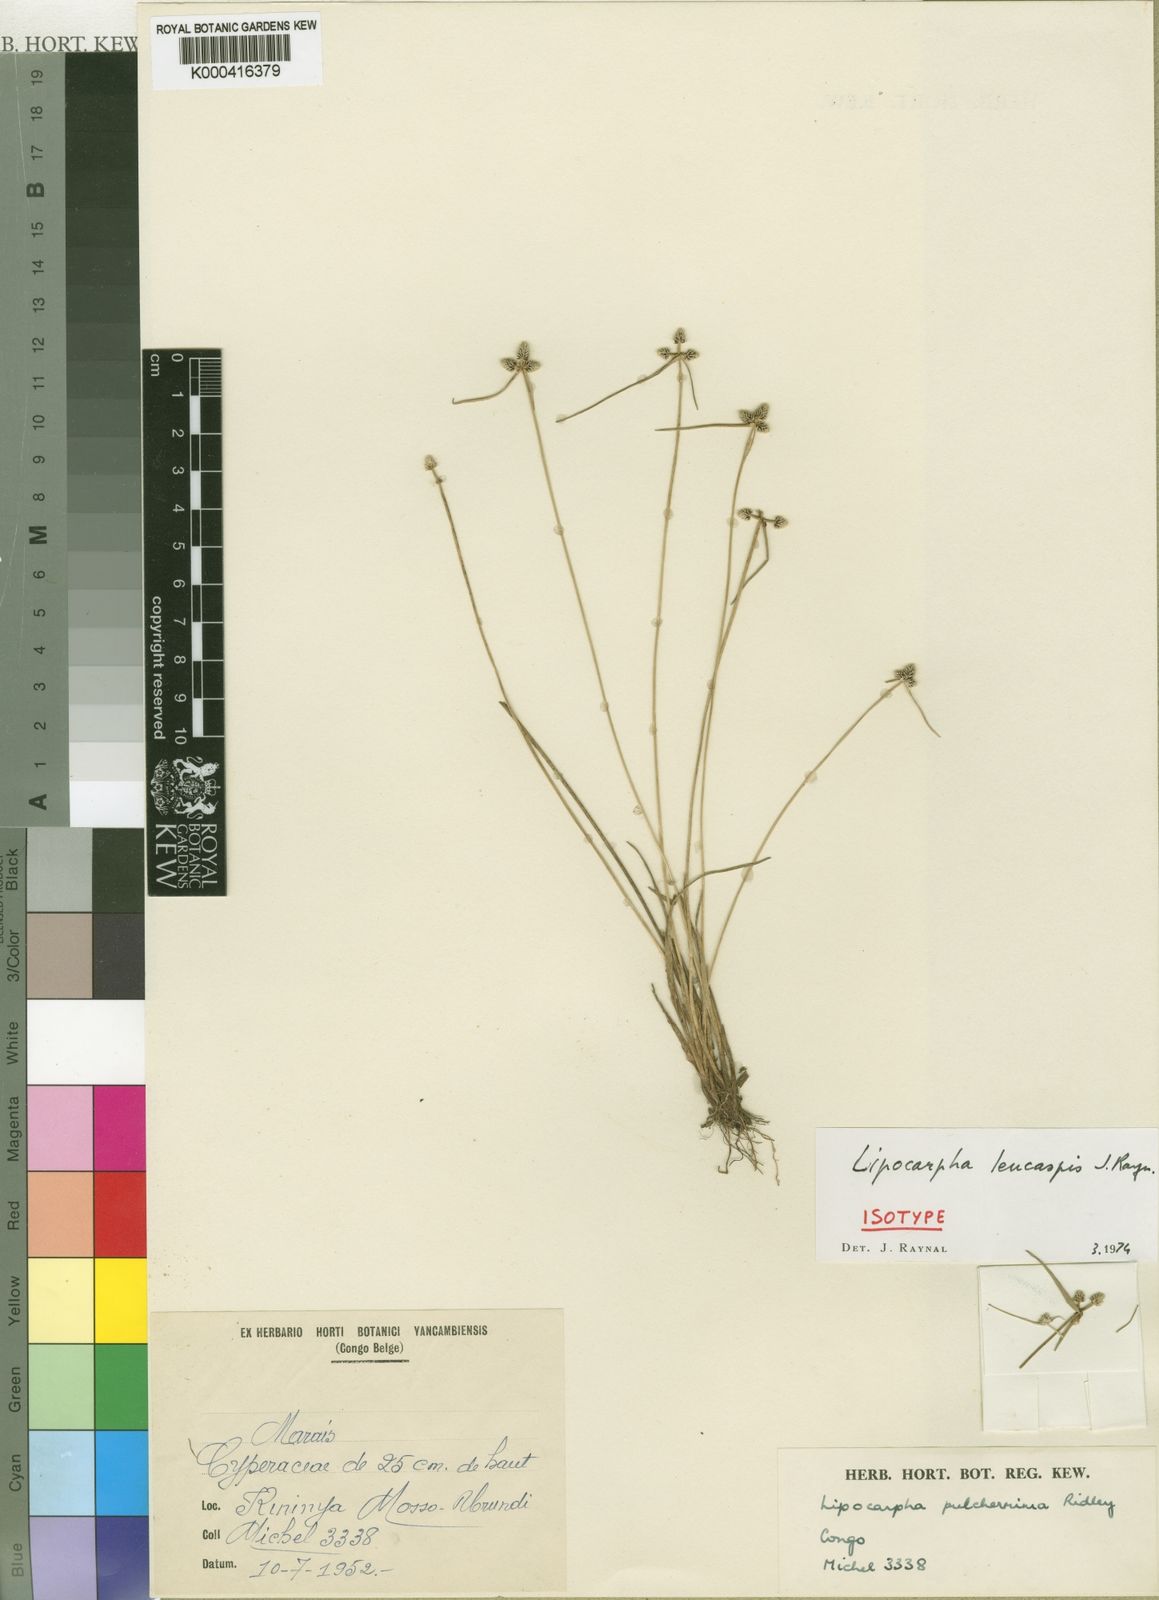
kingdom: Plantae
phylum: Tracheophyta
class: Liliopsida
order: Poales
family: Cyperaceae
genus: Cyperus
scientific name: Cyperus leucaspis
